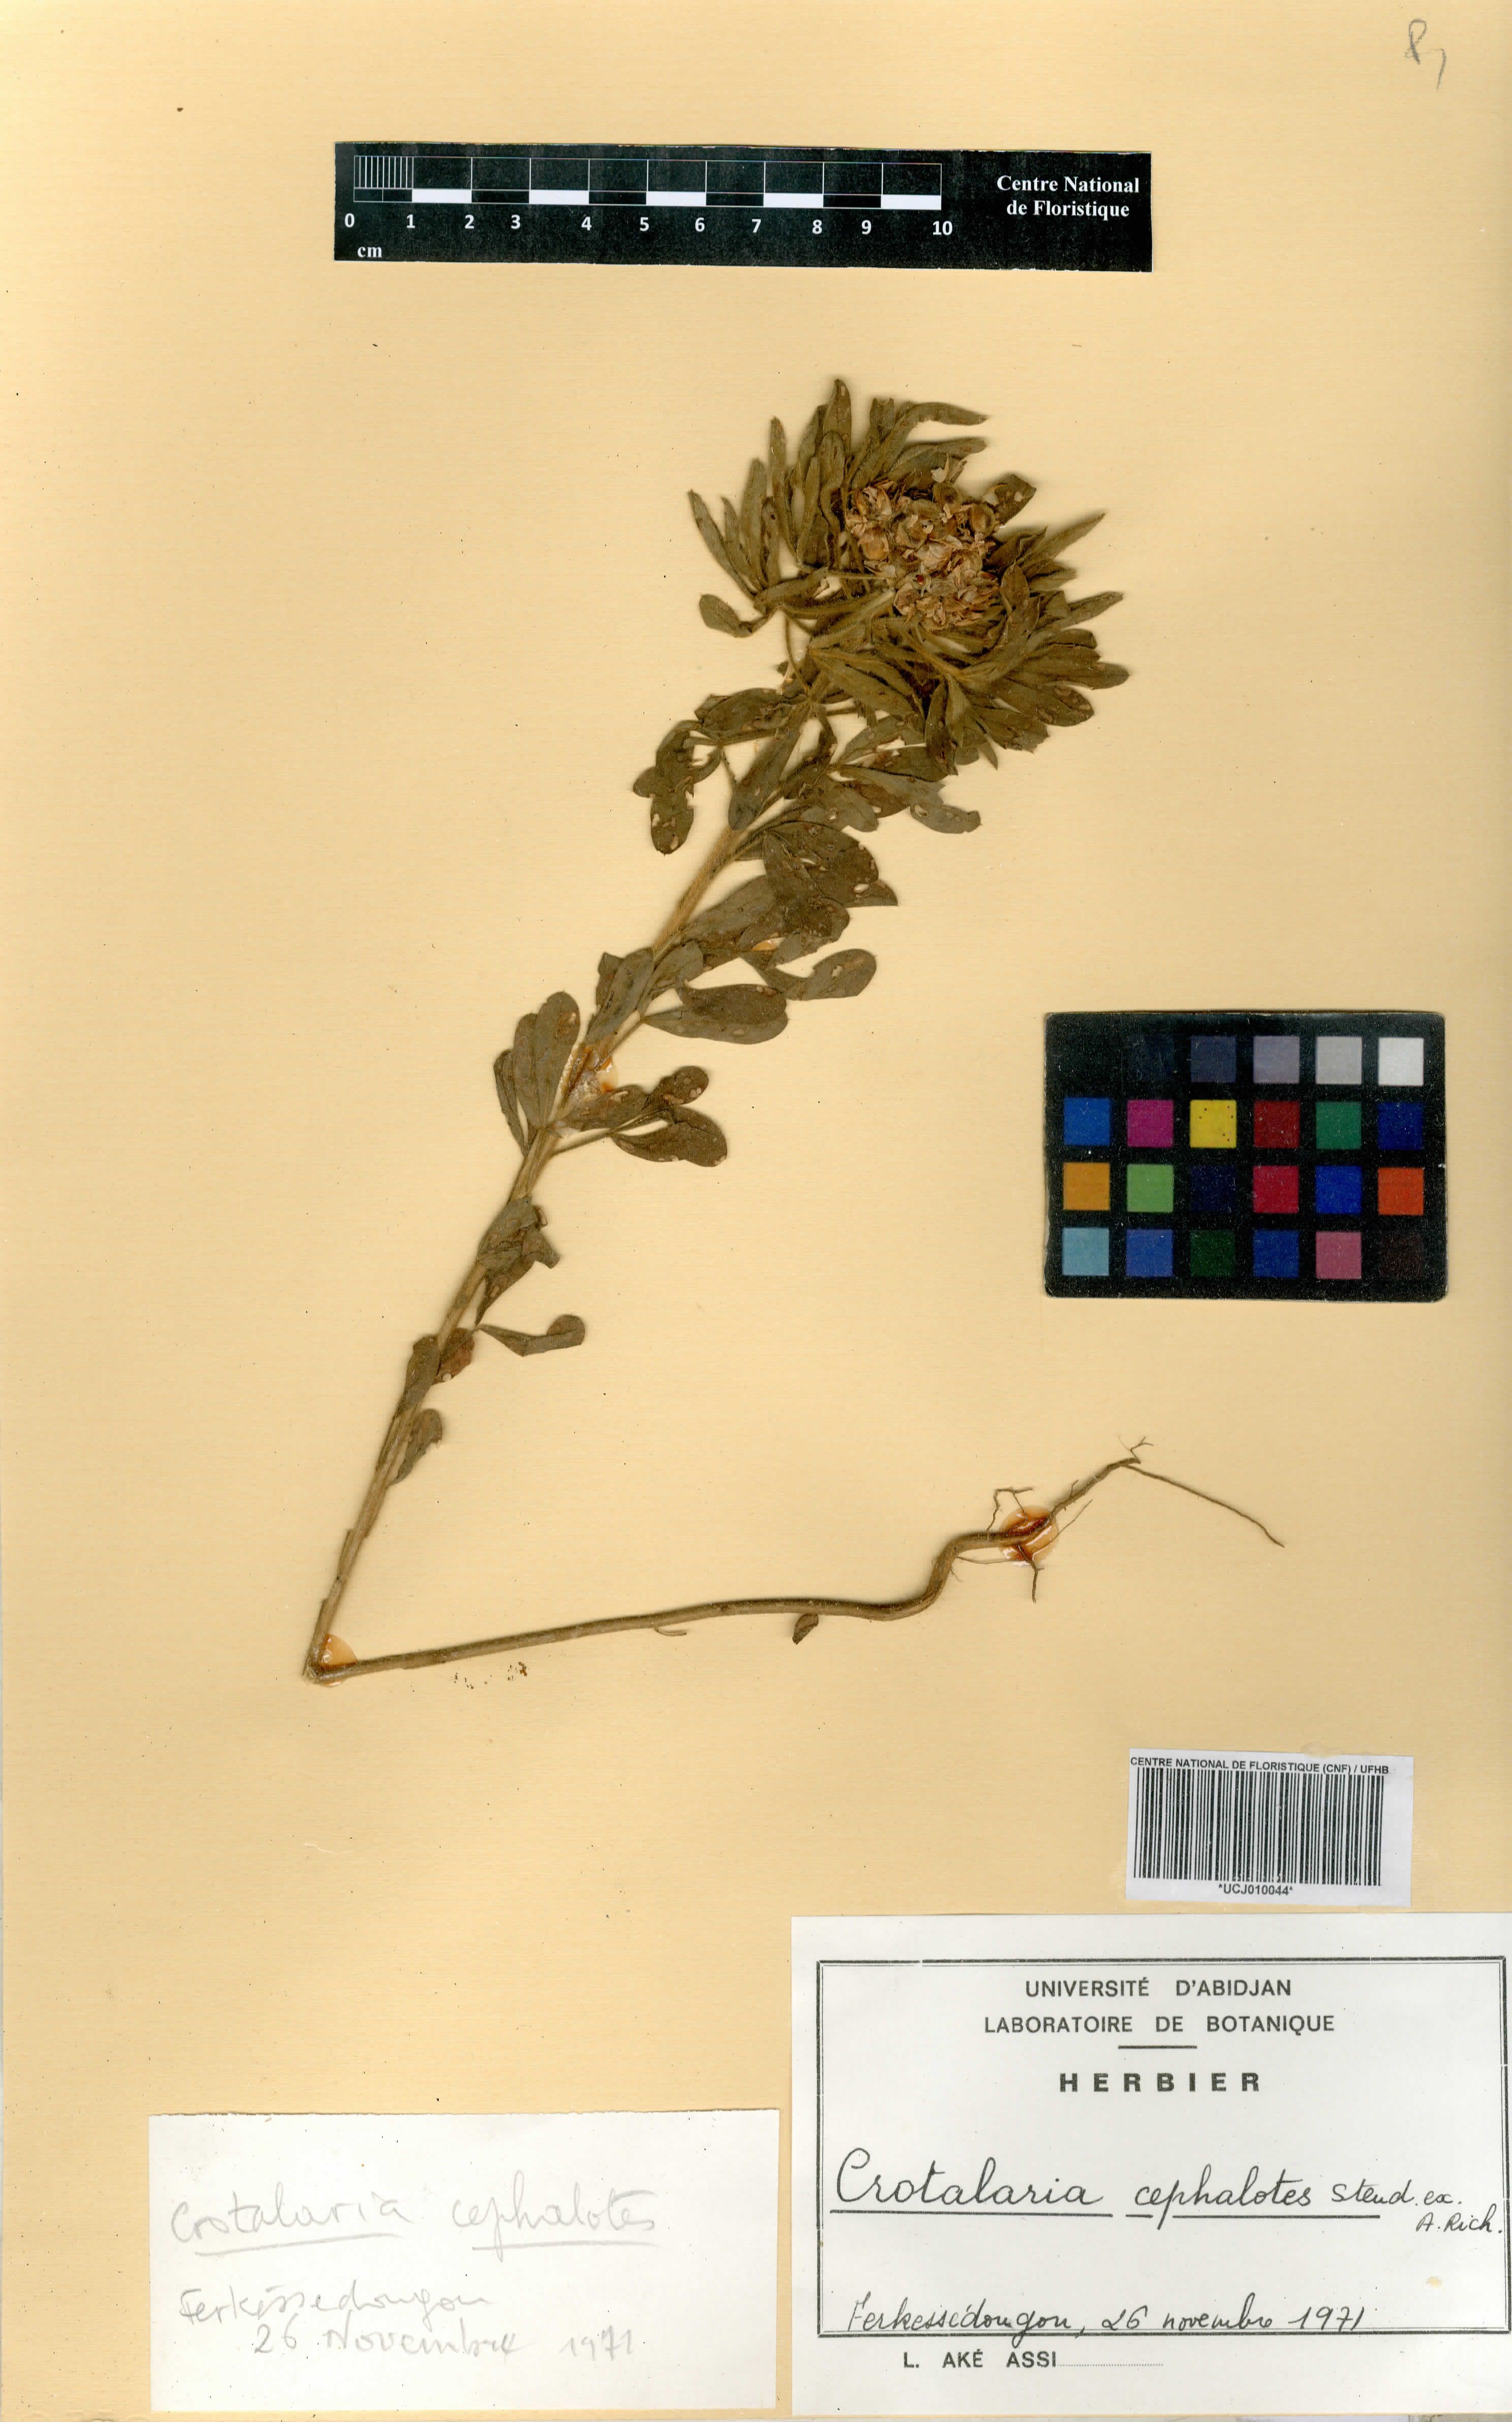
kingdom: Plantae
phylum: Tracheophyta
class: Magnoliopsida
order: Fabales
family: Fabaceae
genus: Crotalaria
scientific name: Crotalaria cephalotes
